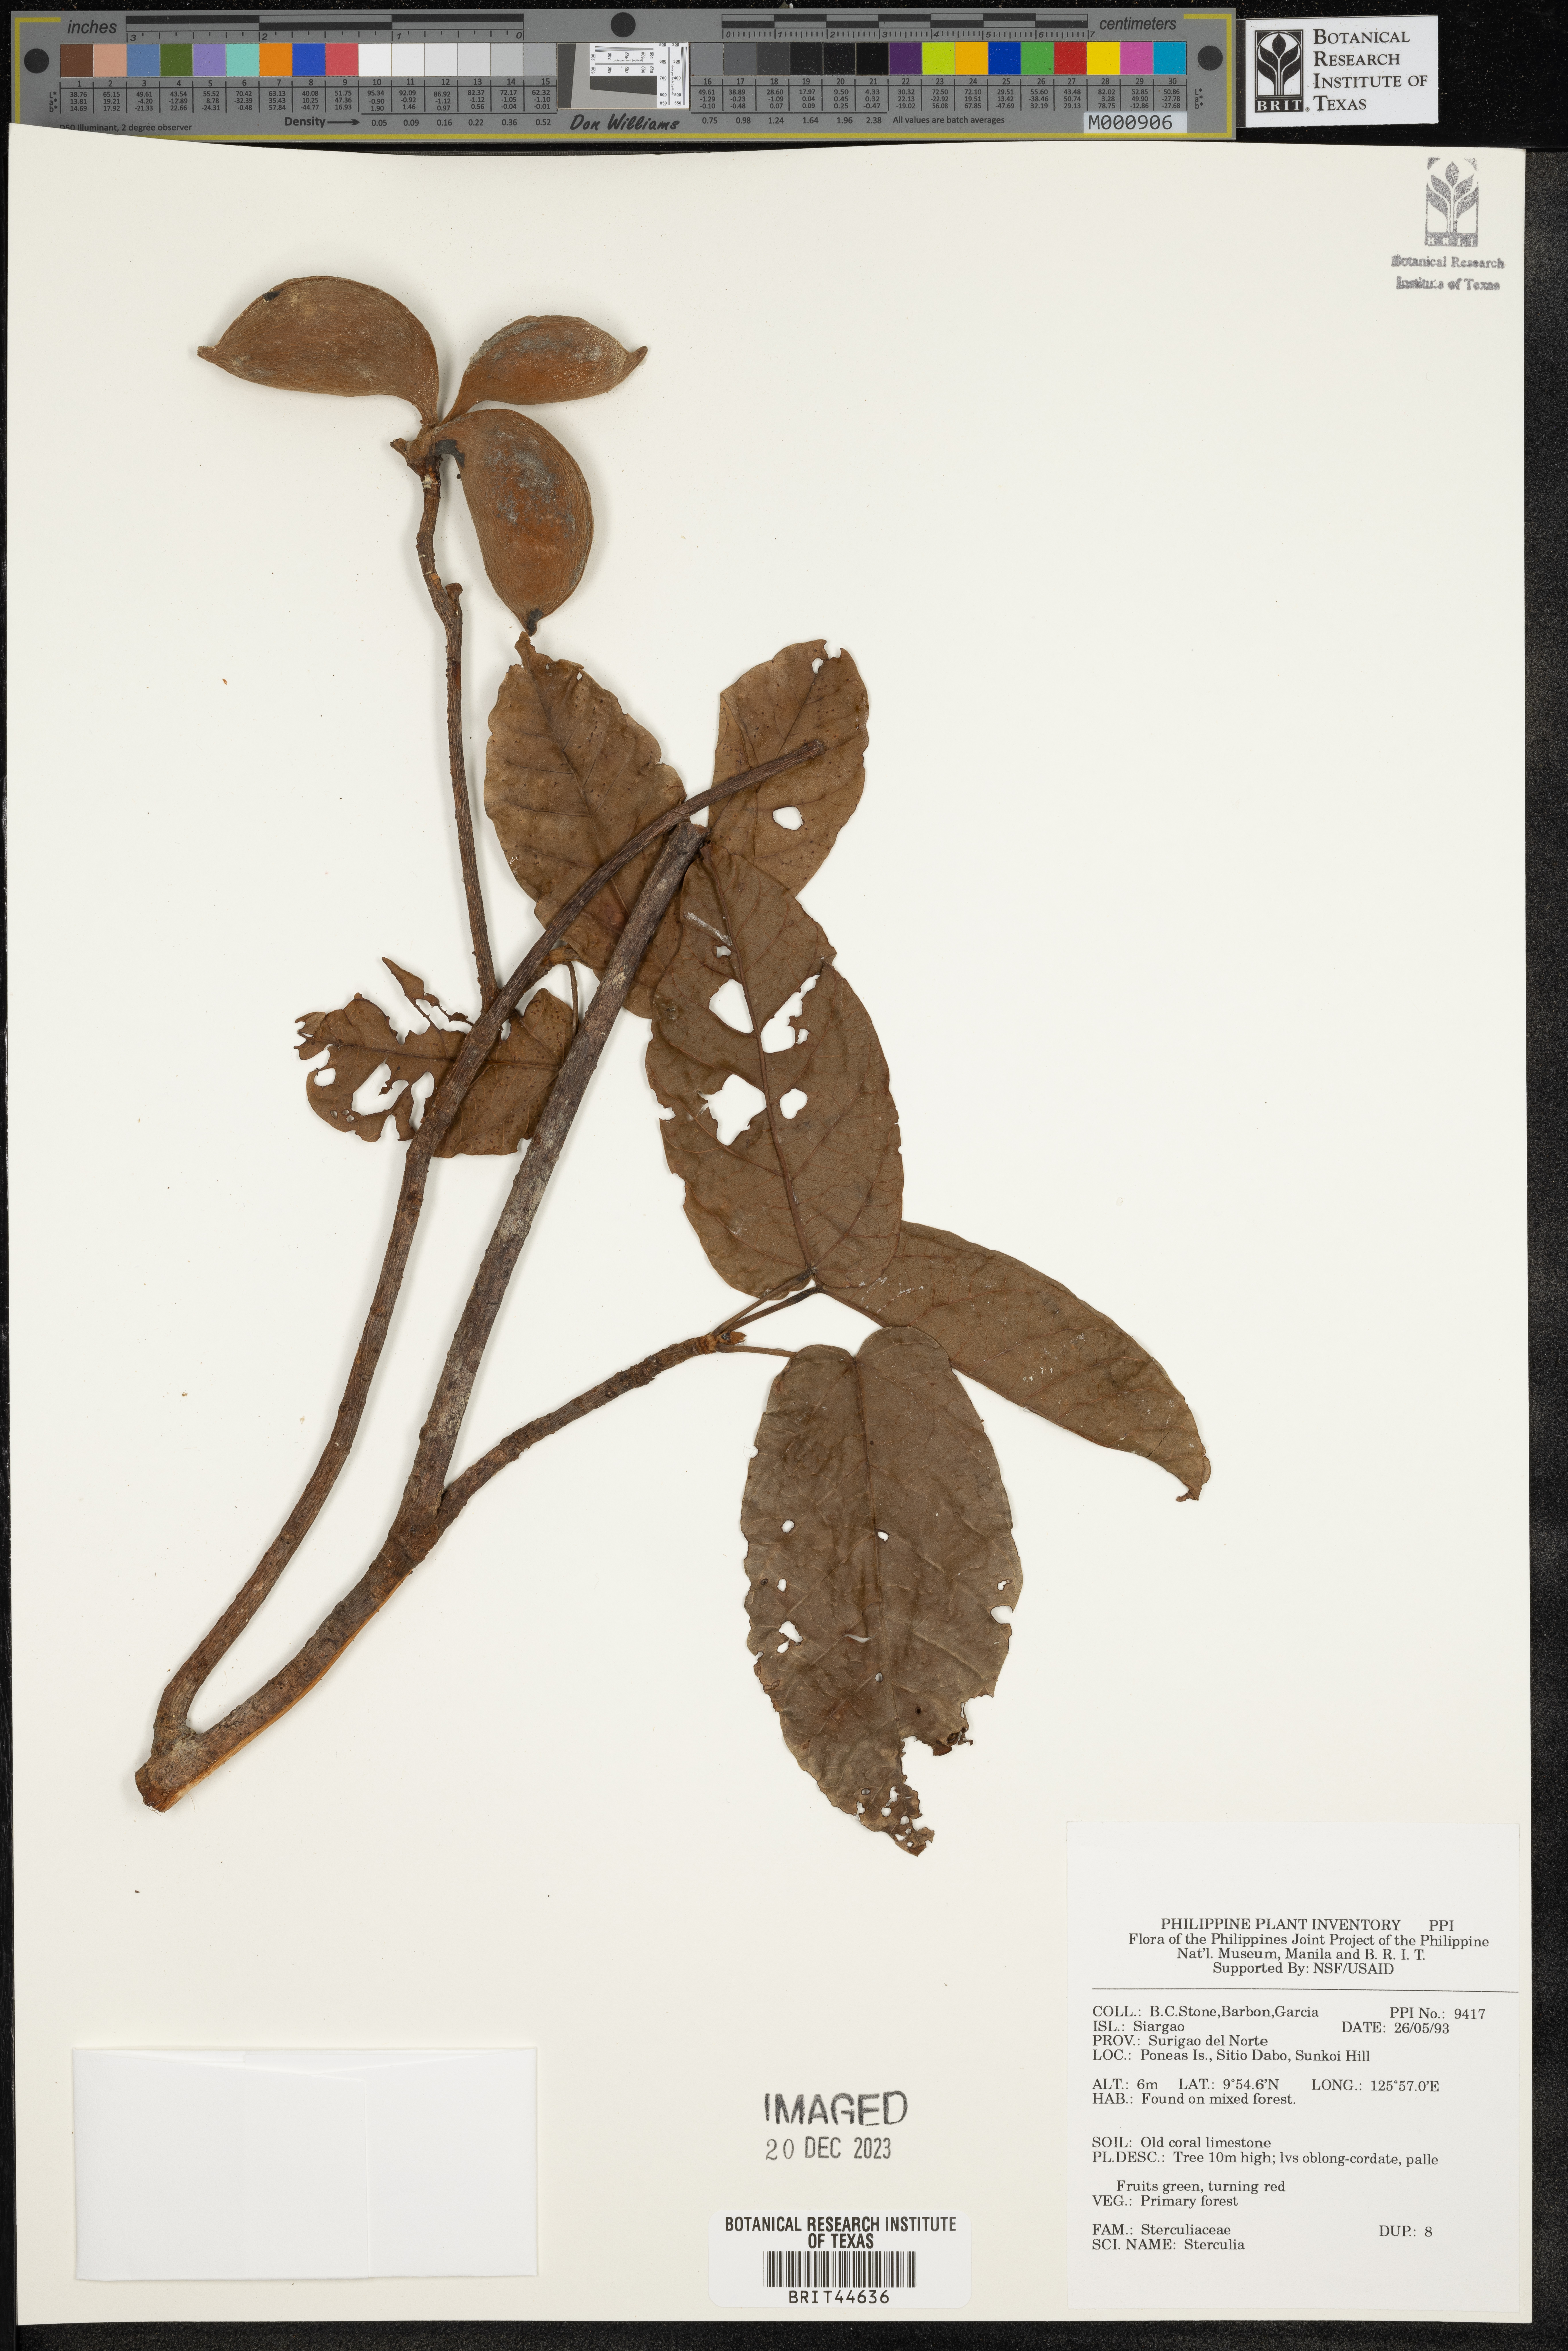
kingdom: Plantae
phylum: Tracheophyta
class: Magnoliopsida
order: Malvales
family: Malvaceae
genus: Sterculia
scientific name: Sterculia
